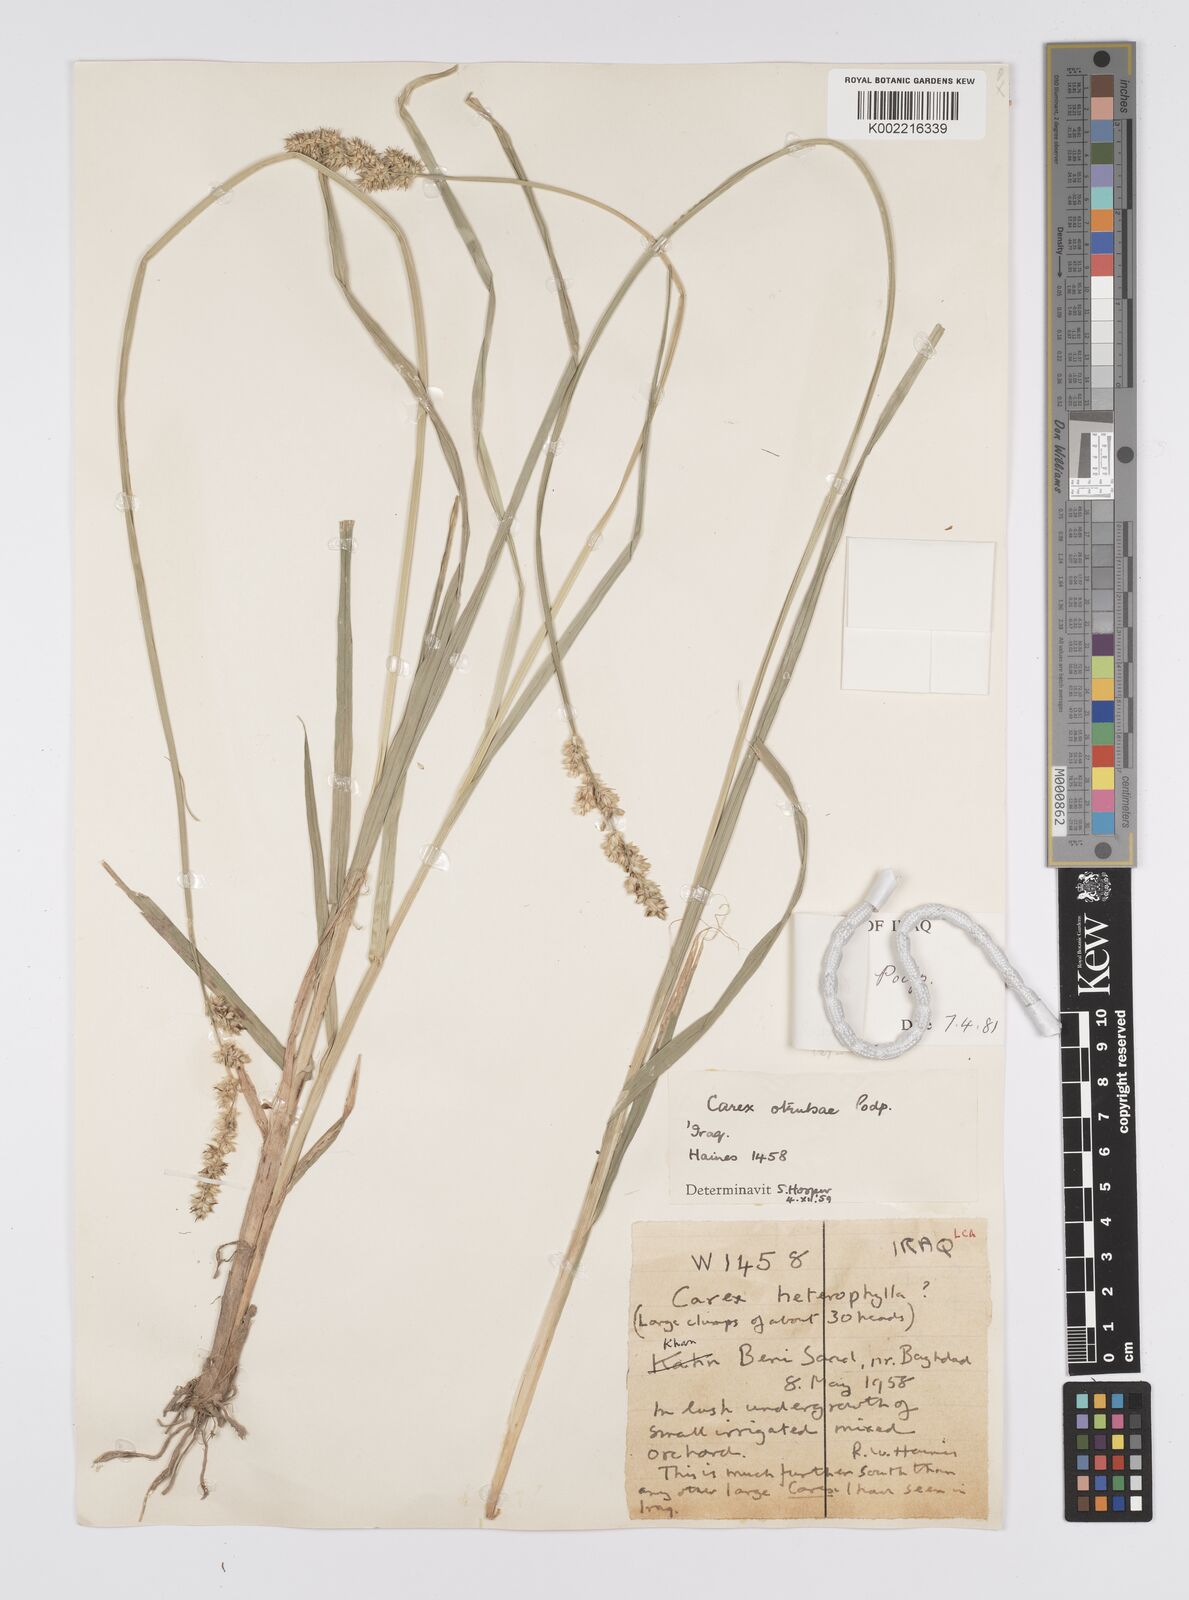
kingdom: Plantae
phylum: Tracheophyta
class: Liliopsida
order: Poales
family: Cyperaceae
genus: Carex
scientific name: Carex otrubae
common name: False fox-sedge
